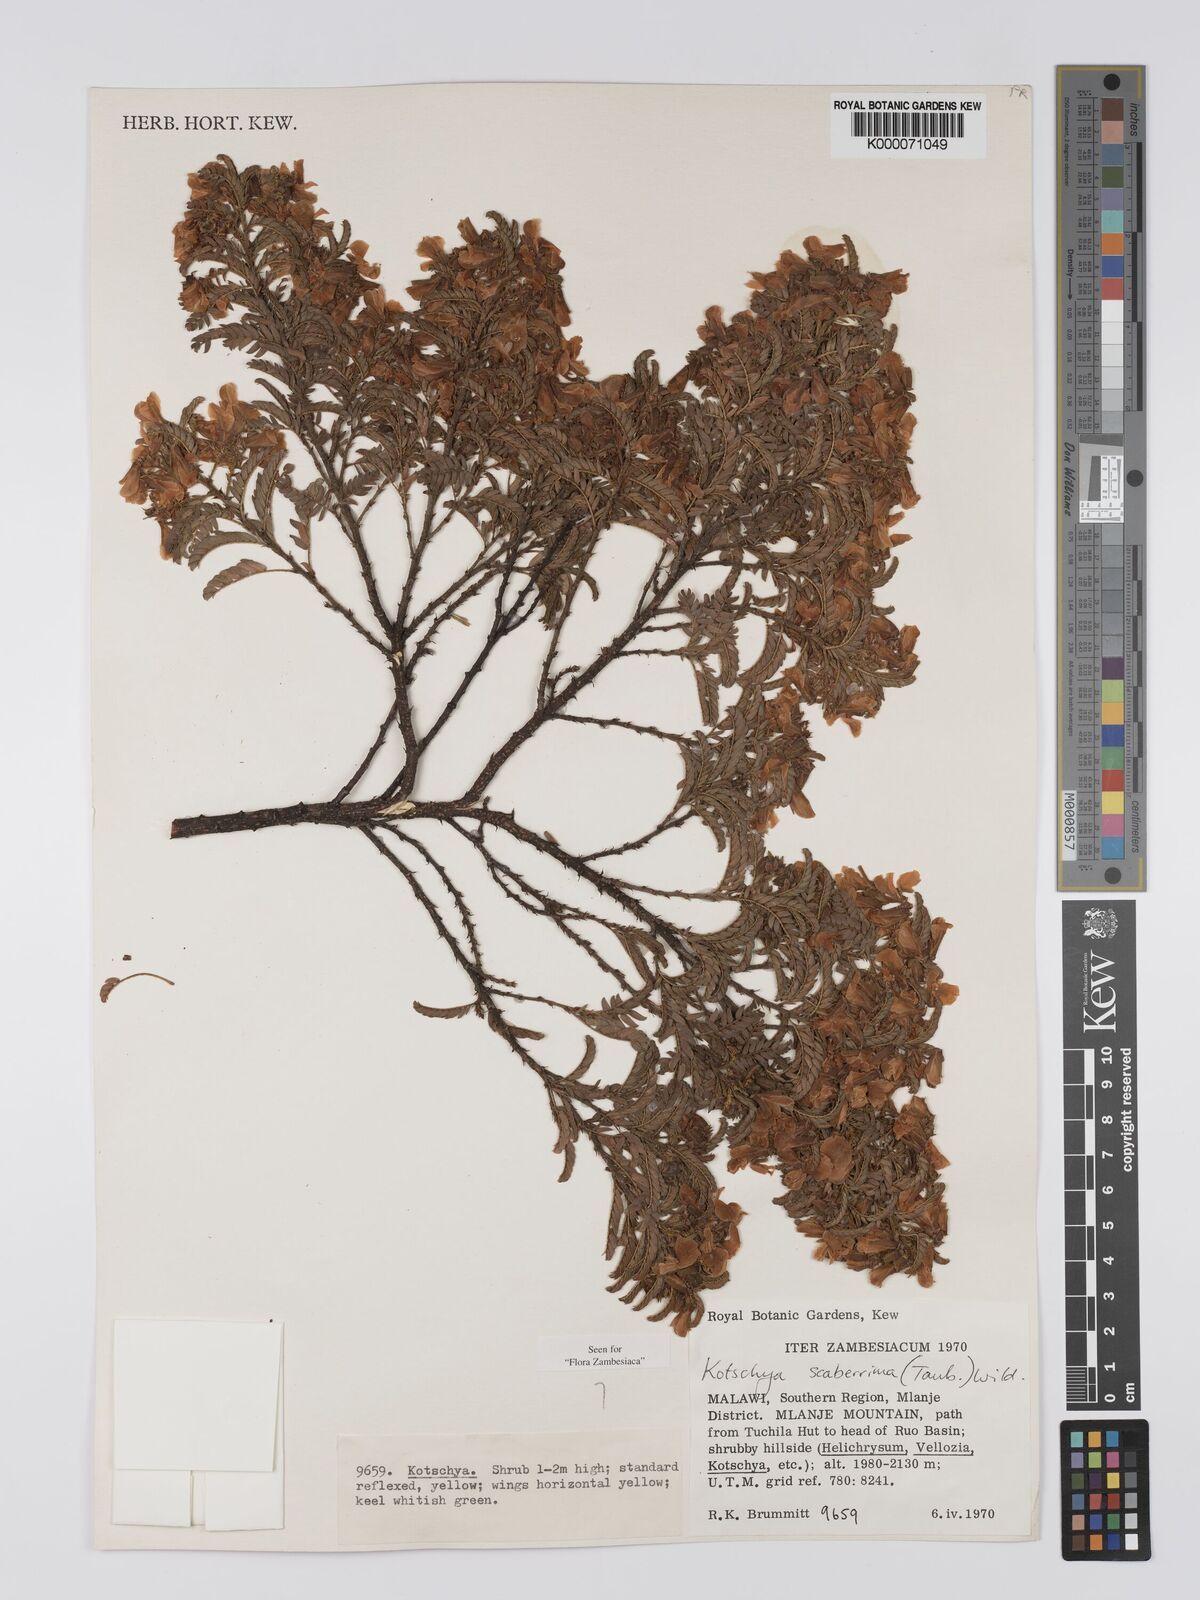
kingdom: Plantae
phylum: Tracheophyta
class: Magnoliopsida
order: Fabales
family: Fabaceae
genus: Kotschya
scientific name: Kotschya scaberrima
